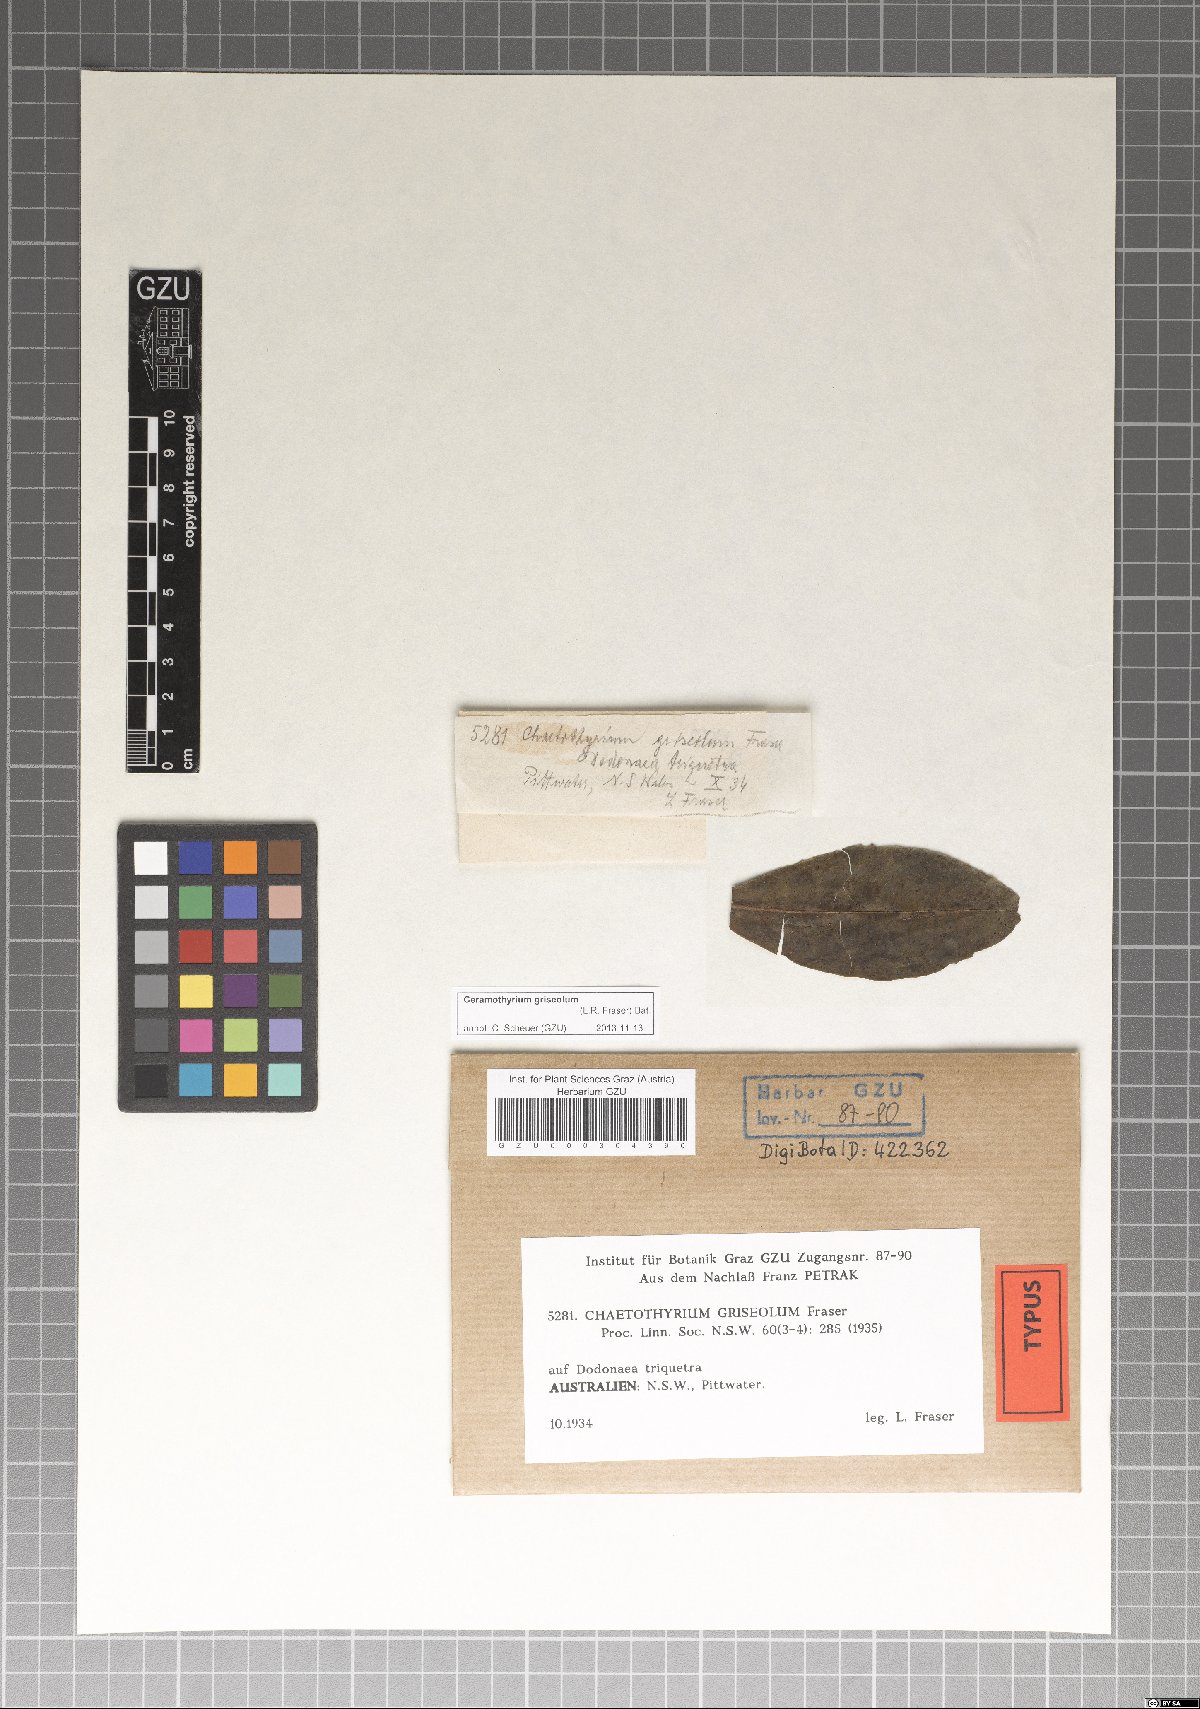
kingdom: Fungi
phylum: Ascomycota
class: Eurotiomycetes
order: Chaetothyriales
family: Chaetothyriaceae
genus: Ceramothyrium
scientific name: Ceramothyrium griseolum
